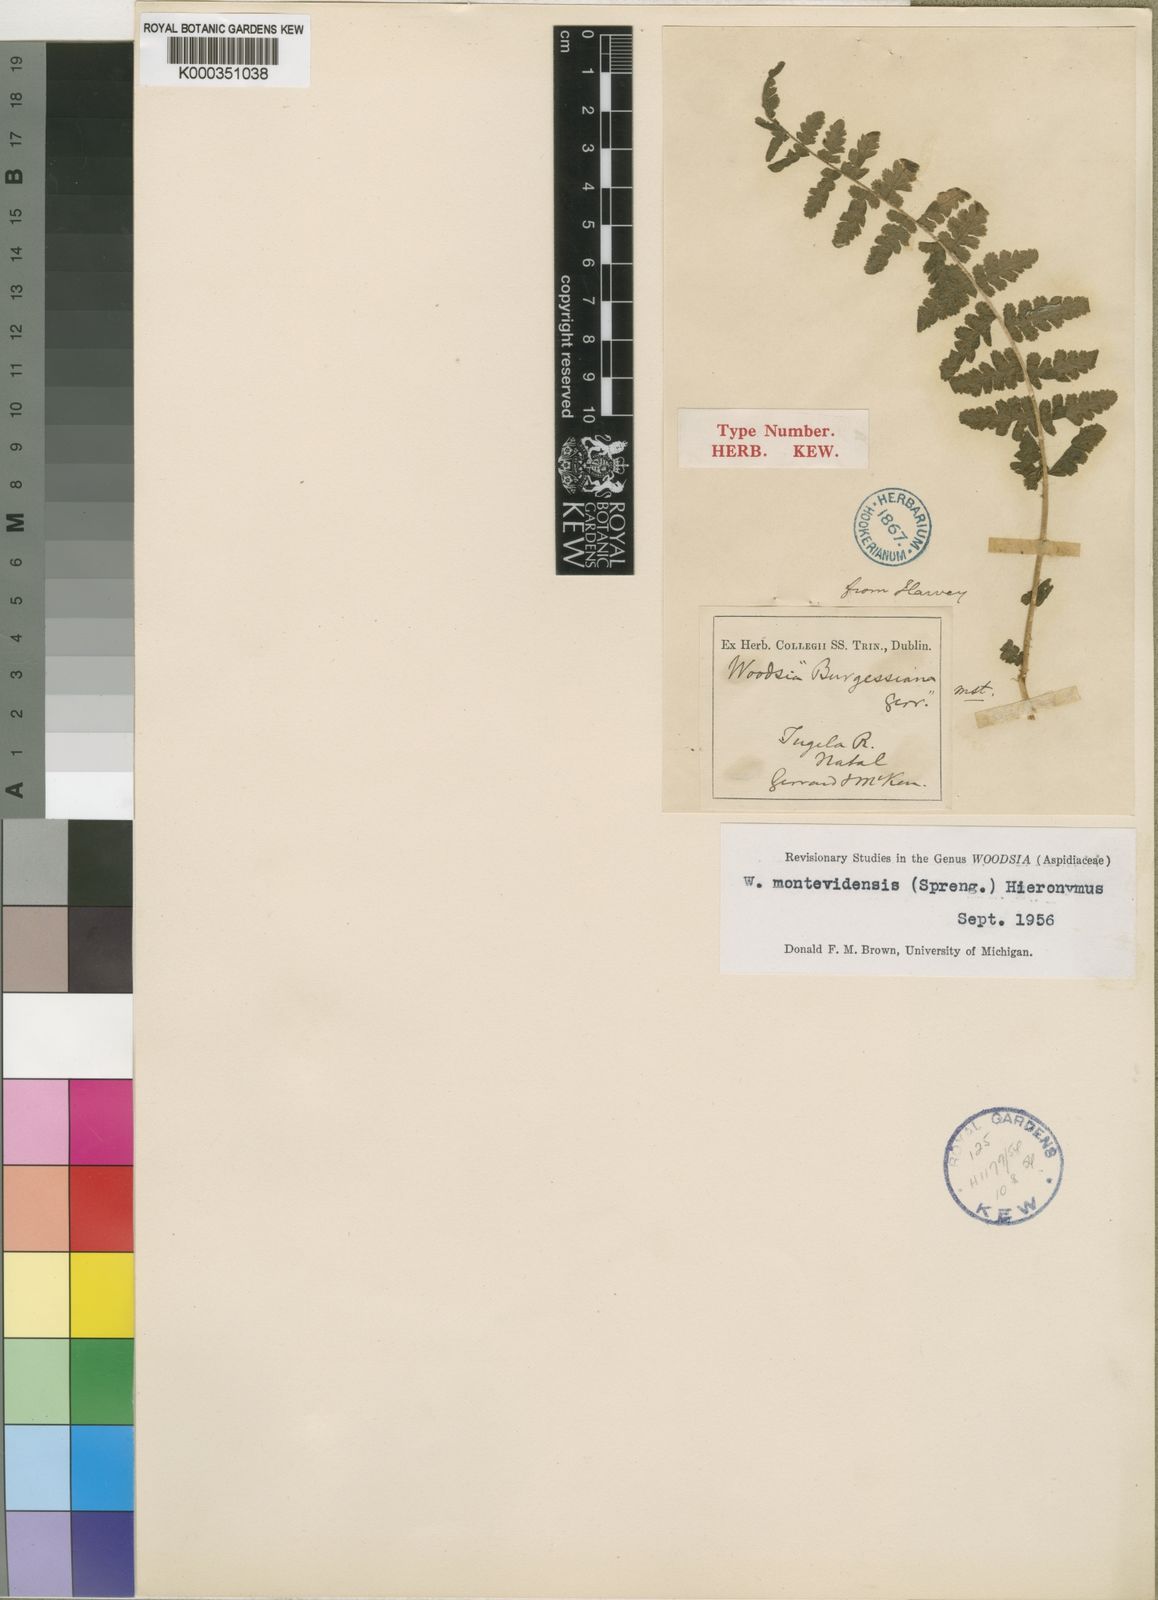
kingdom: Plantae
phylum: Tracheophyta
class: Polypodiopsida
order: Polypodiales
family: Woodsiaceae
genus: Woodsia
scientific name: Woodsia
